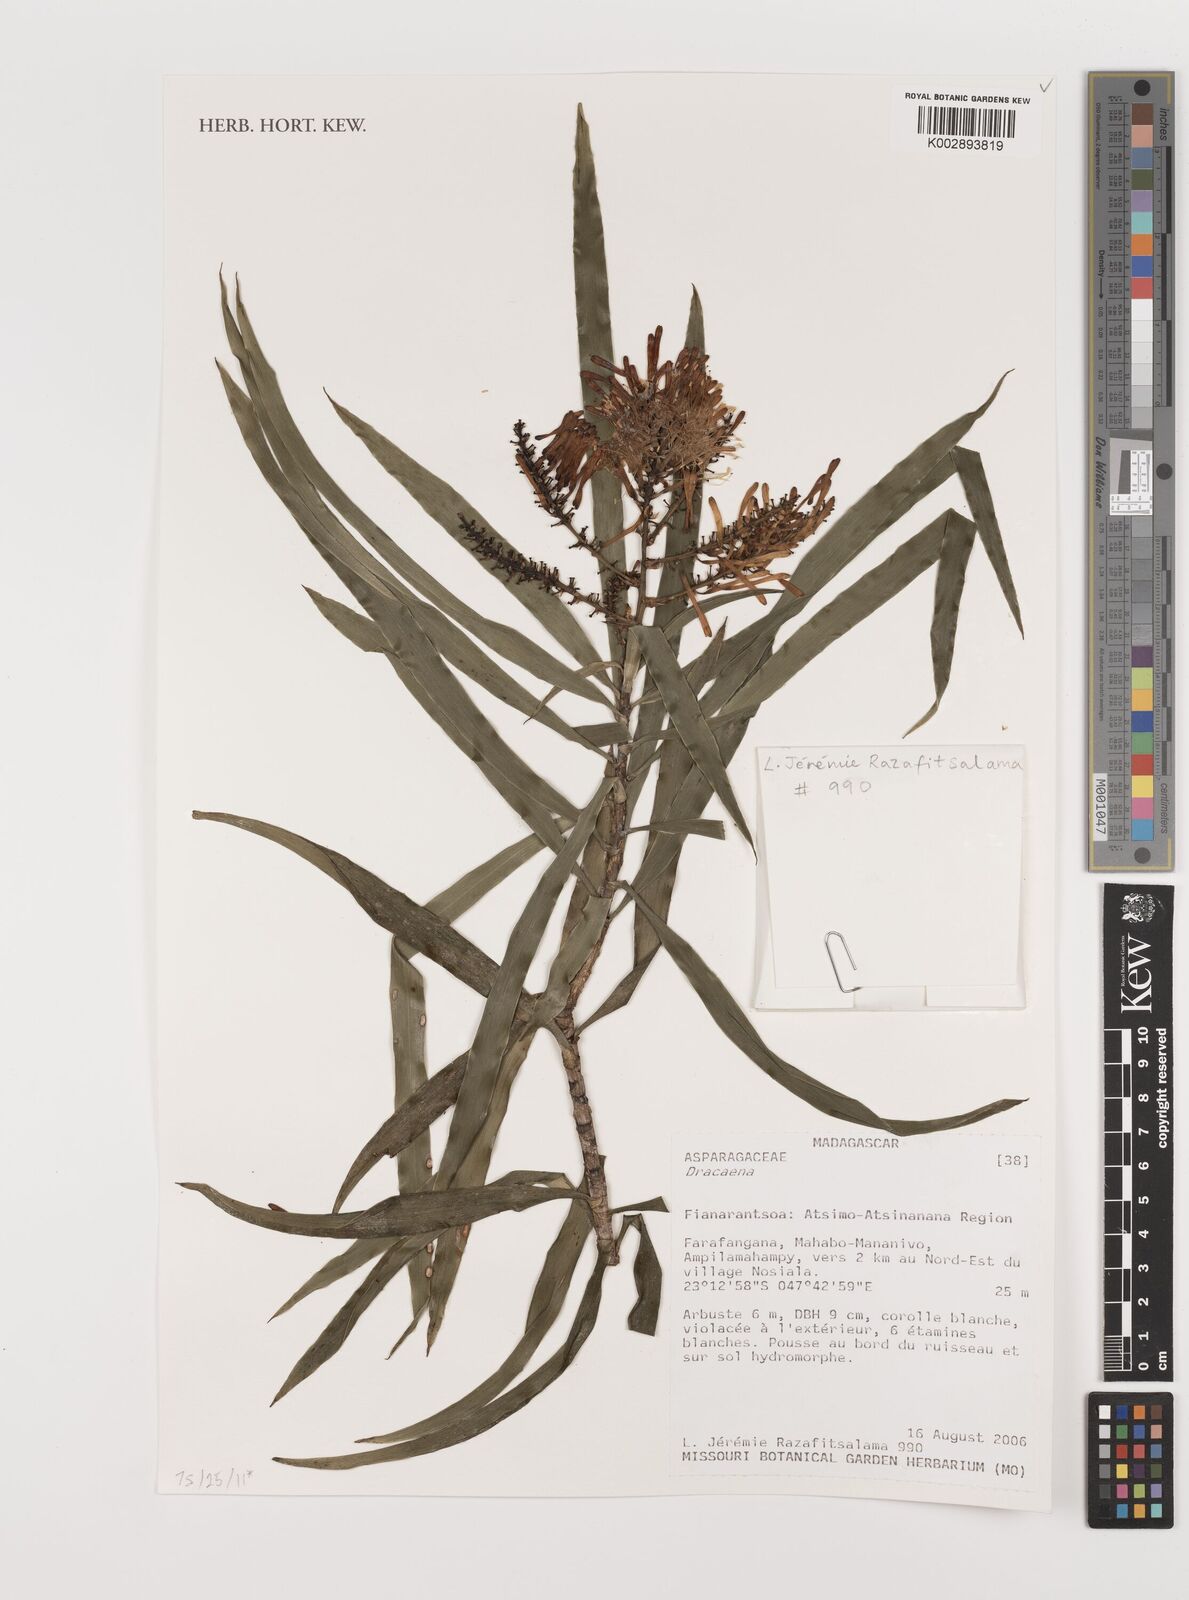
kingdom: Plantae
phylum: Tracheophyta
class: Liliopsida
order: Asparagales
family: Asparagaceae
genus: Dracaena
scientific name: Dracaena
